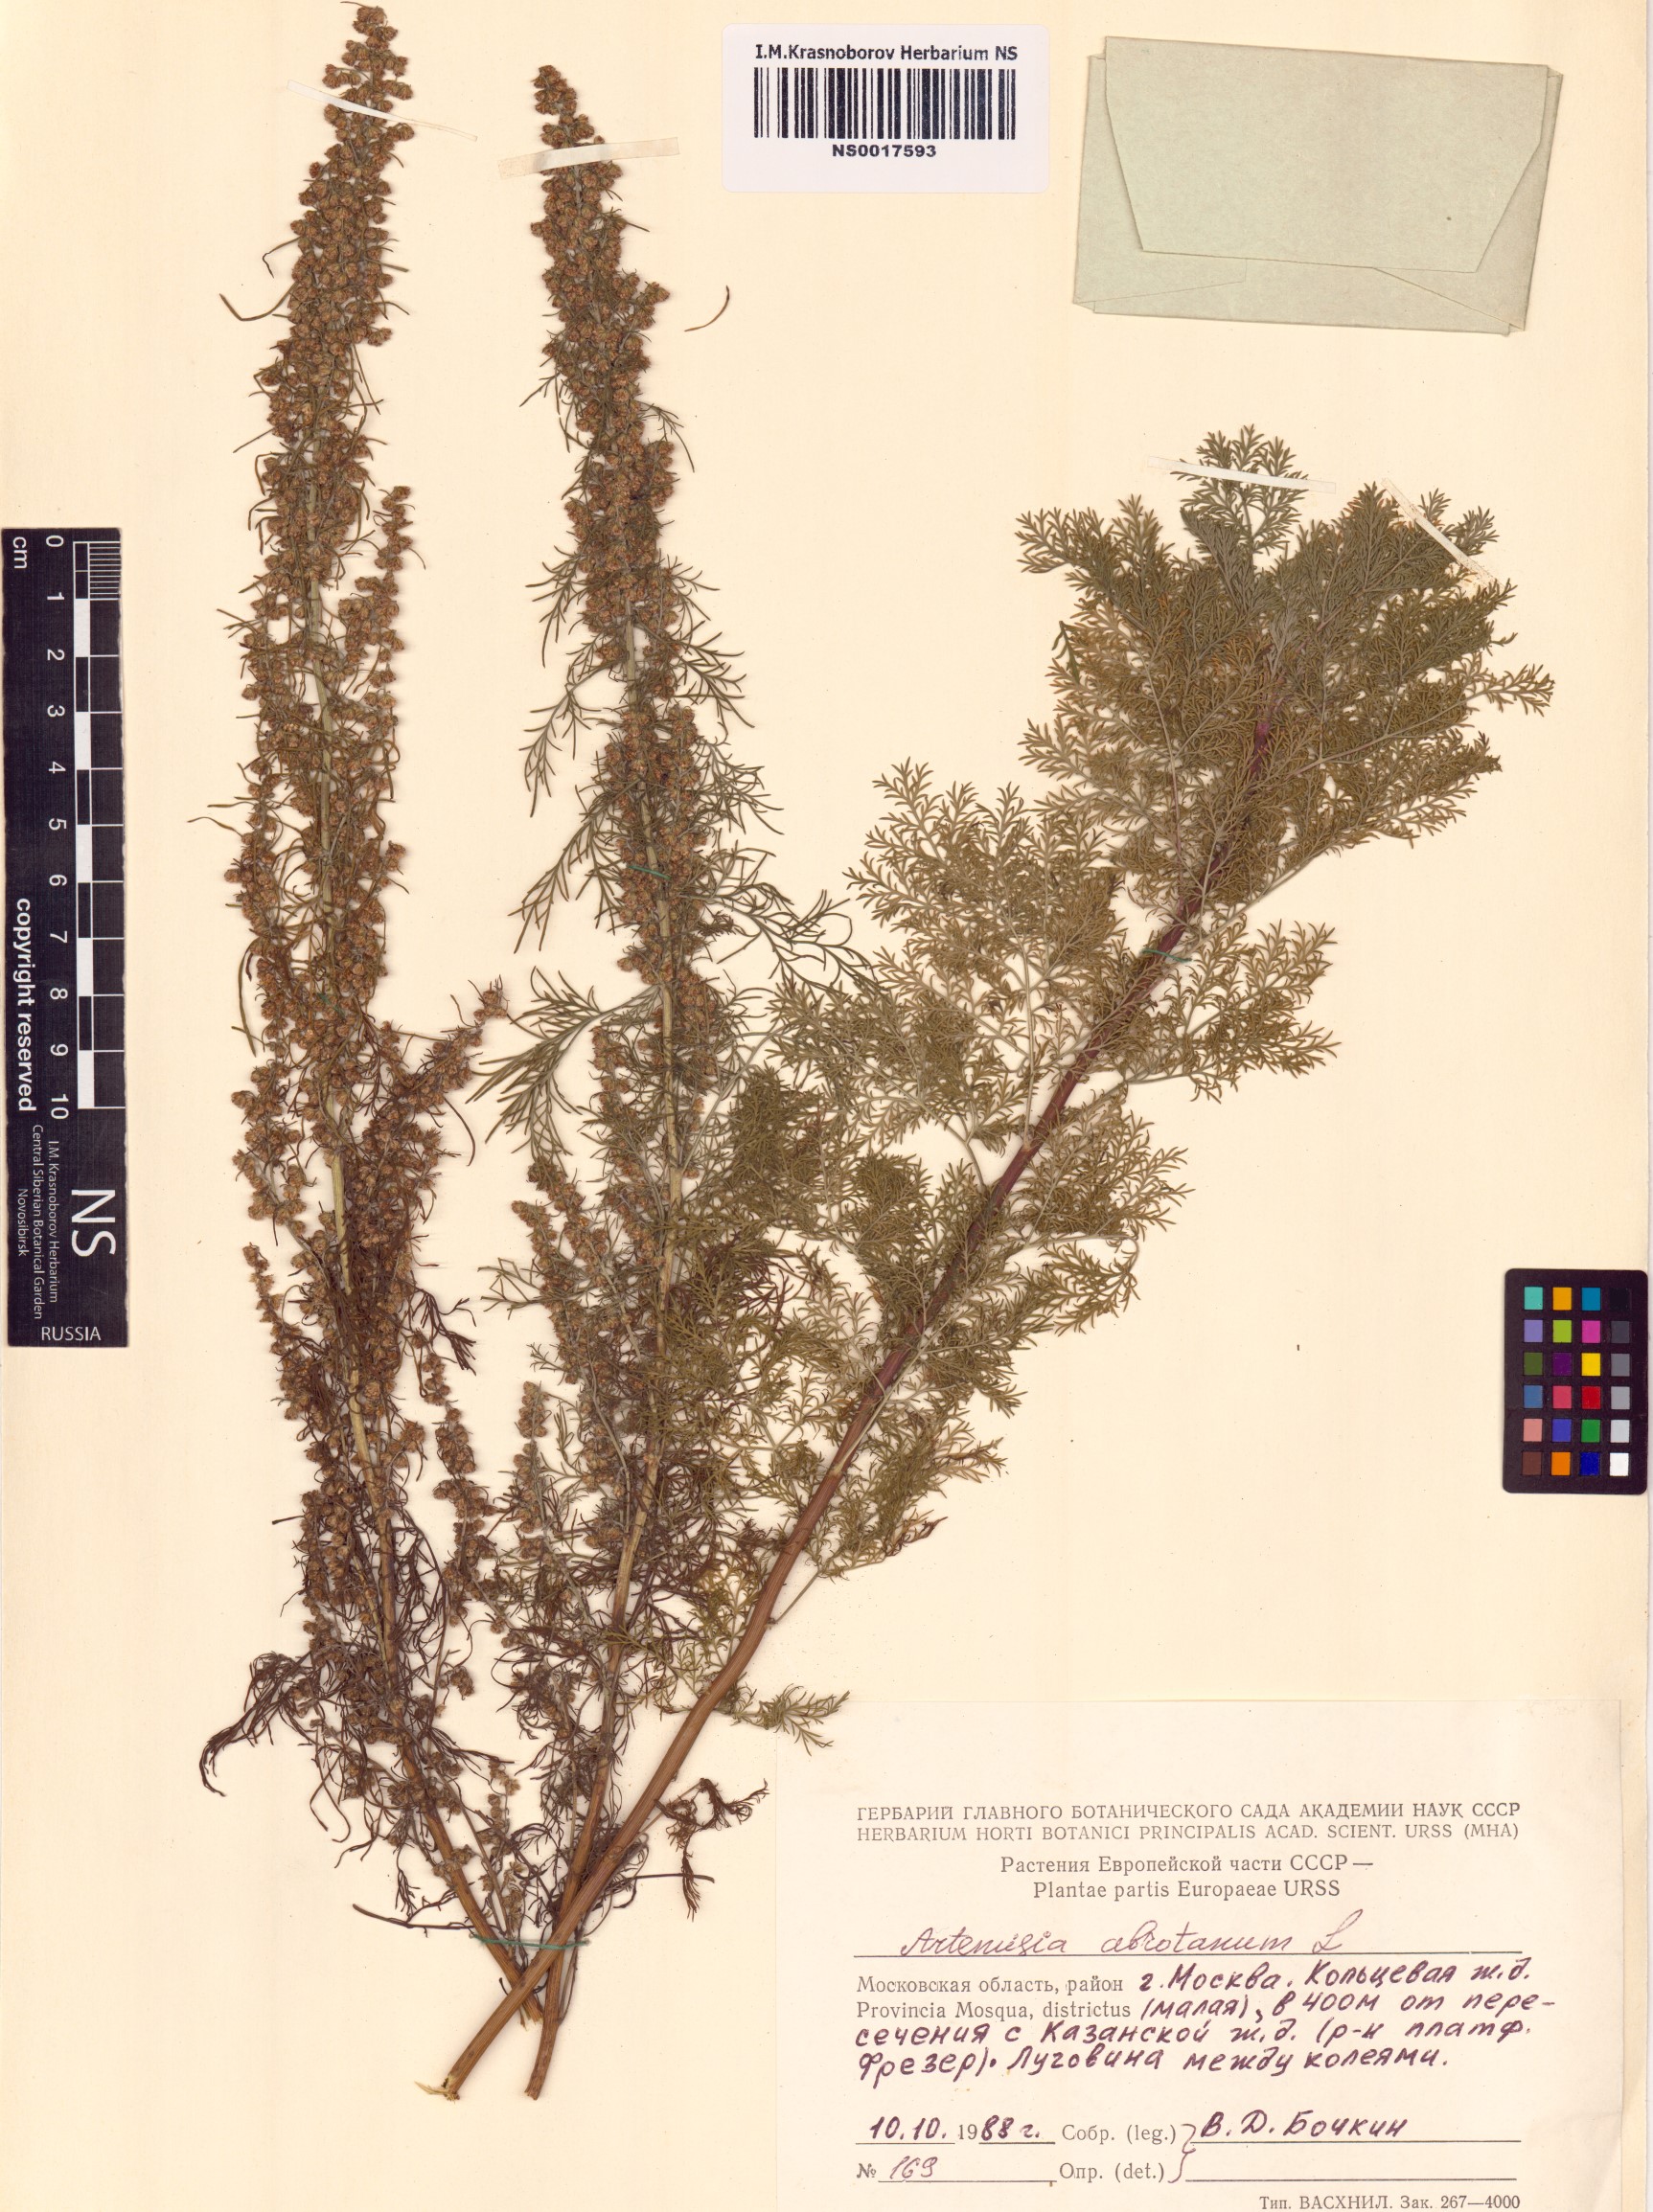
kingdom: Plantae
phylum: Tracheophyta
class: Magnoliopsida
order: Asterales
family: Asteraceae
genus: Artemisia
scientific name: Artemisia abrotanum
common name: Southernwood
